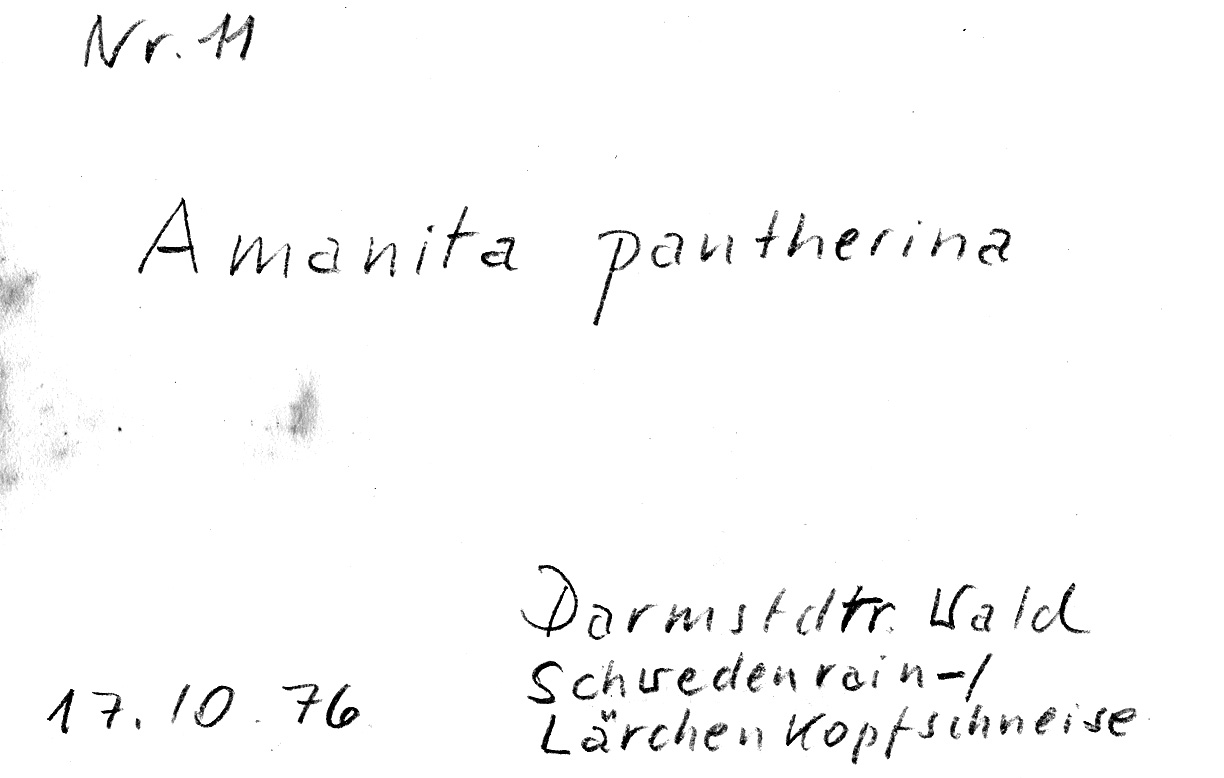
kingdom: Fungi
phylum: Basidiomycota
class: Agaricomycetes
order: Agaricales
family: Amanitaceae
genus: Amanita
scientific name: Amanita pantherina
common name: Panthercap
